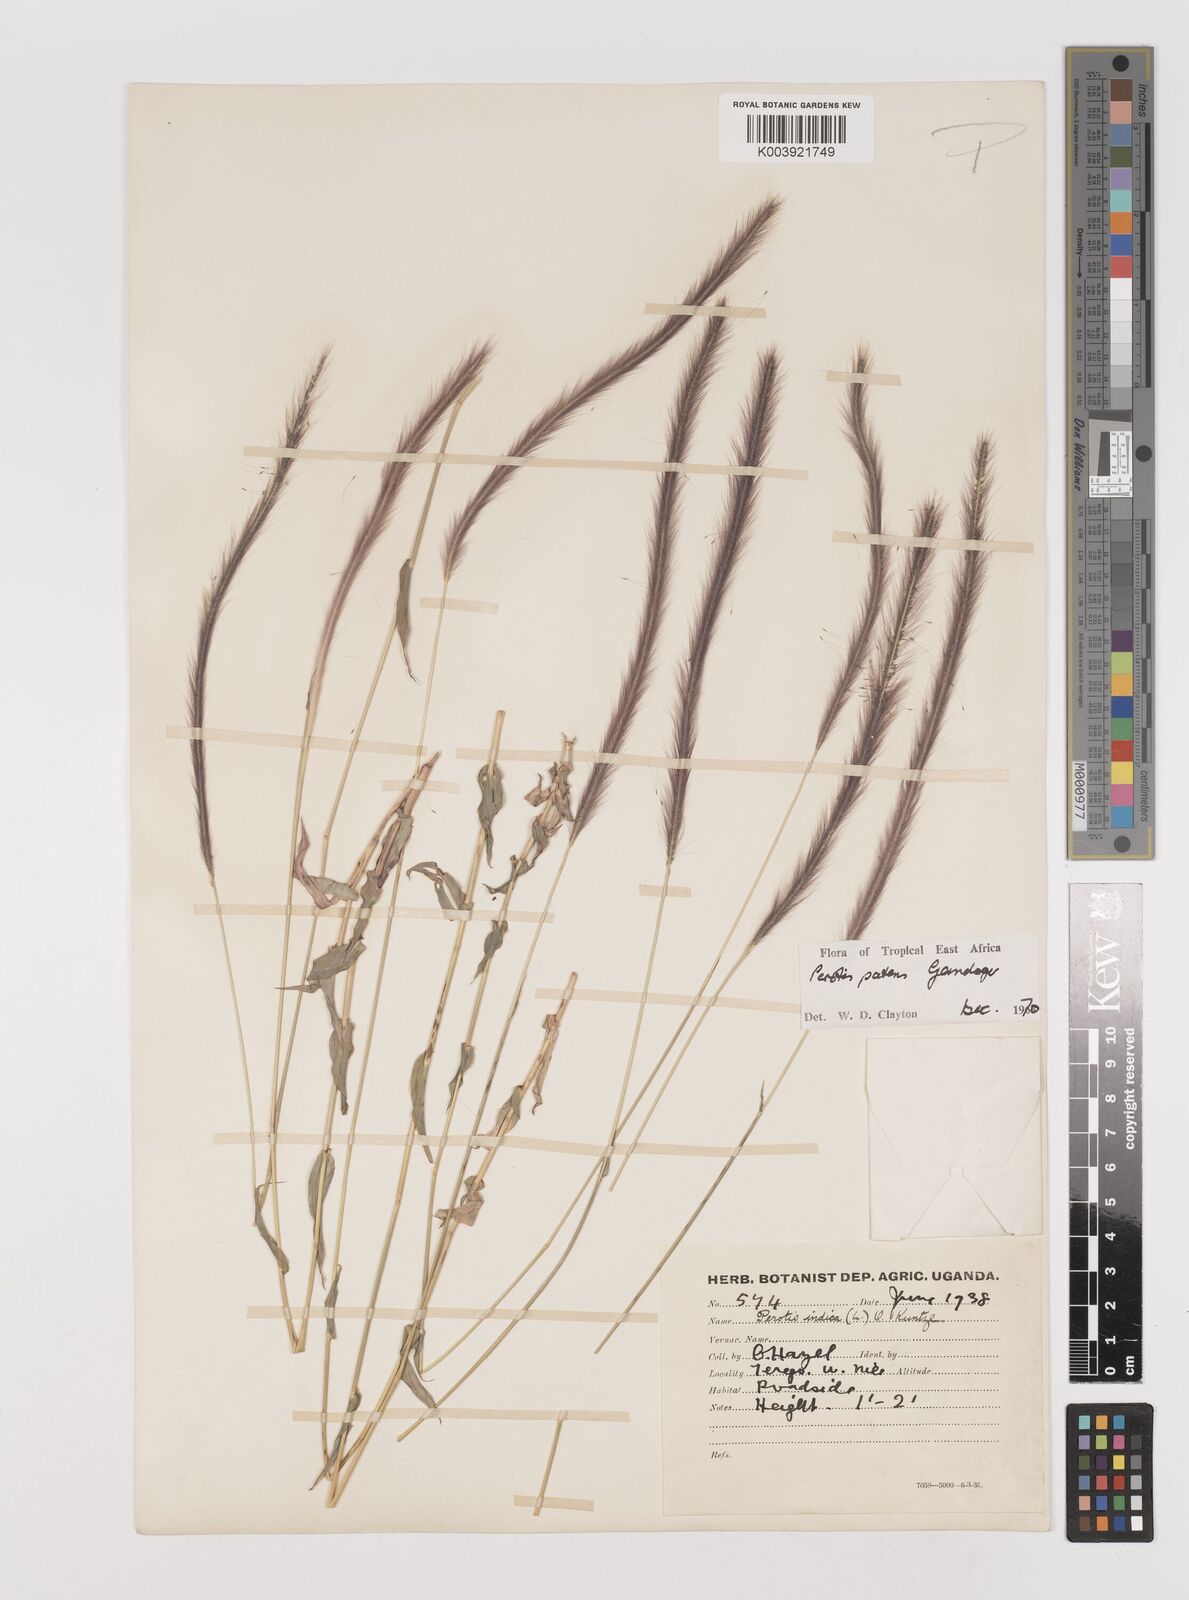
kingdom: Plantae
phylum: Tracheophyta
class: Liliopsida
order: Poales
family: Poaceae
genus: Perotis
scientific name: Perotis patens
